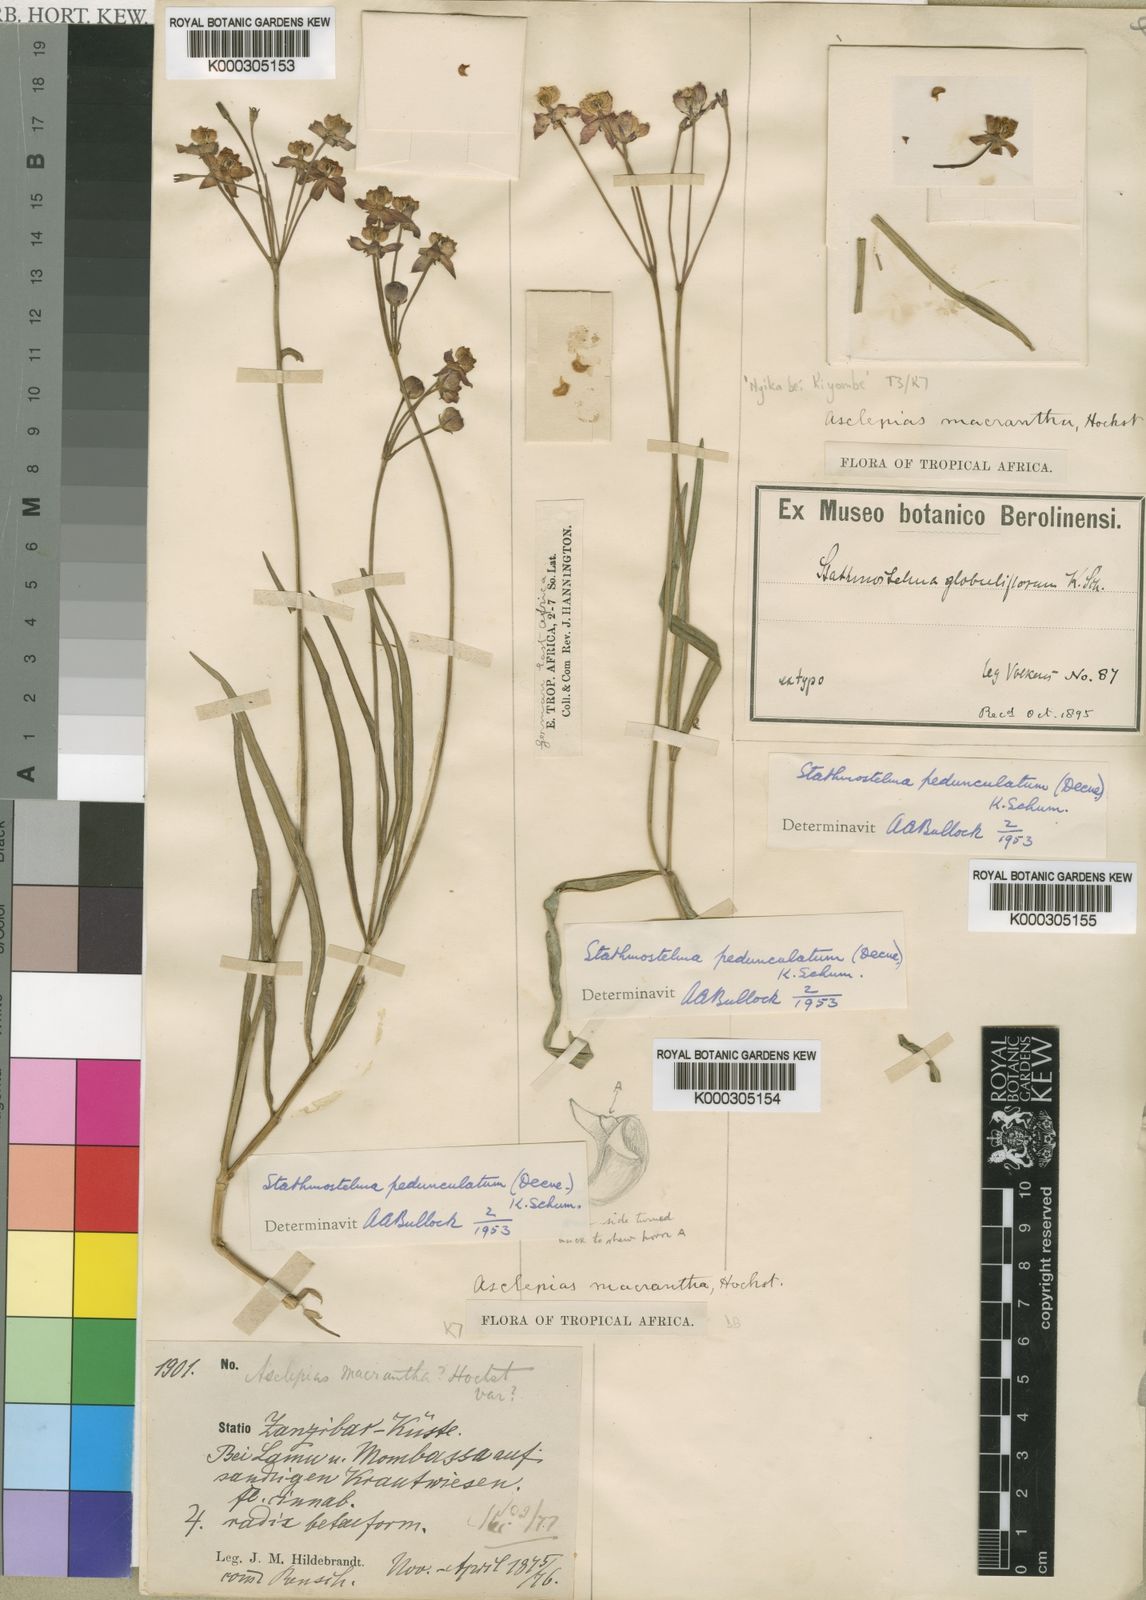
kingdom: Plantae
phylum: Tracheophyta
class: Magnoliopsida
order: Gentianales
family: Apocynaceae
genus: Stathmostelma
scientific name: Stathmostelma pedunculatum
